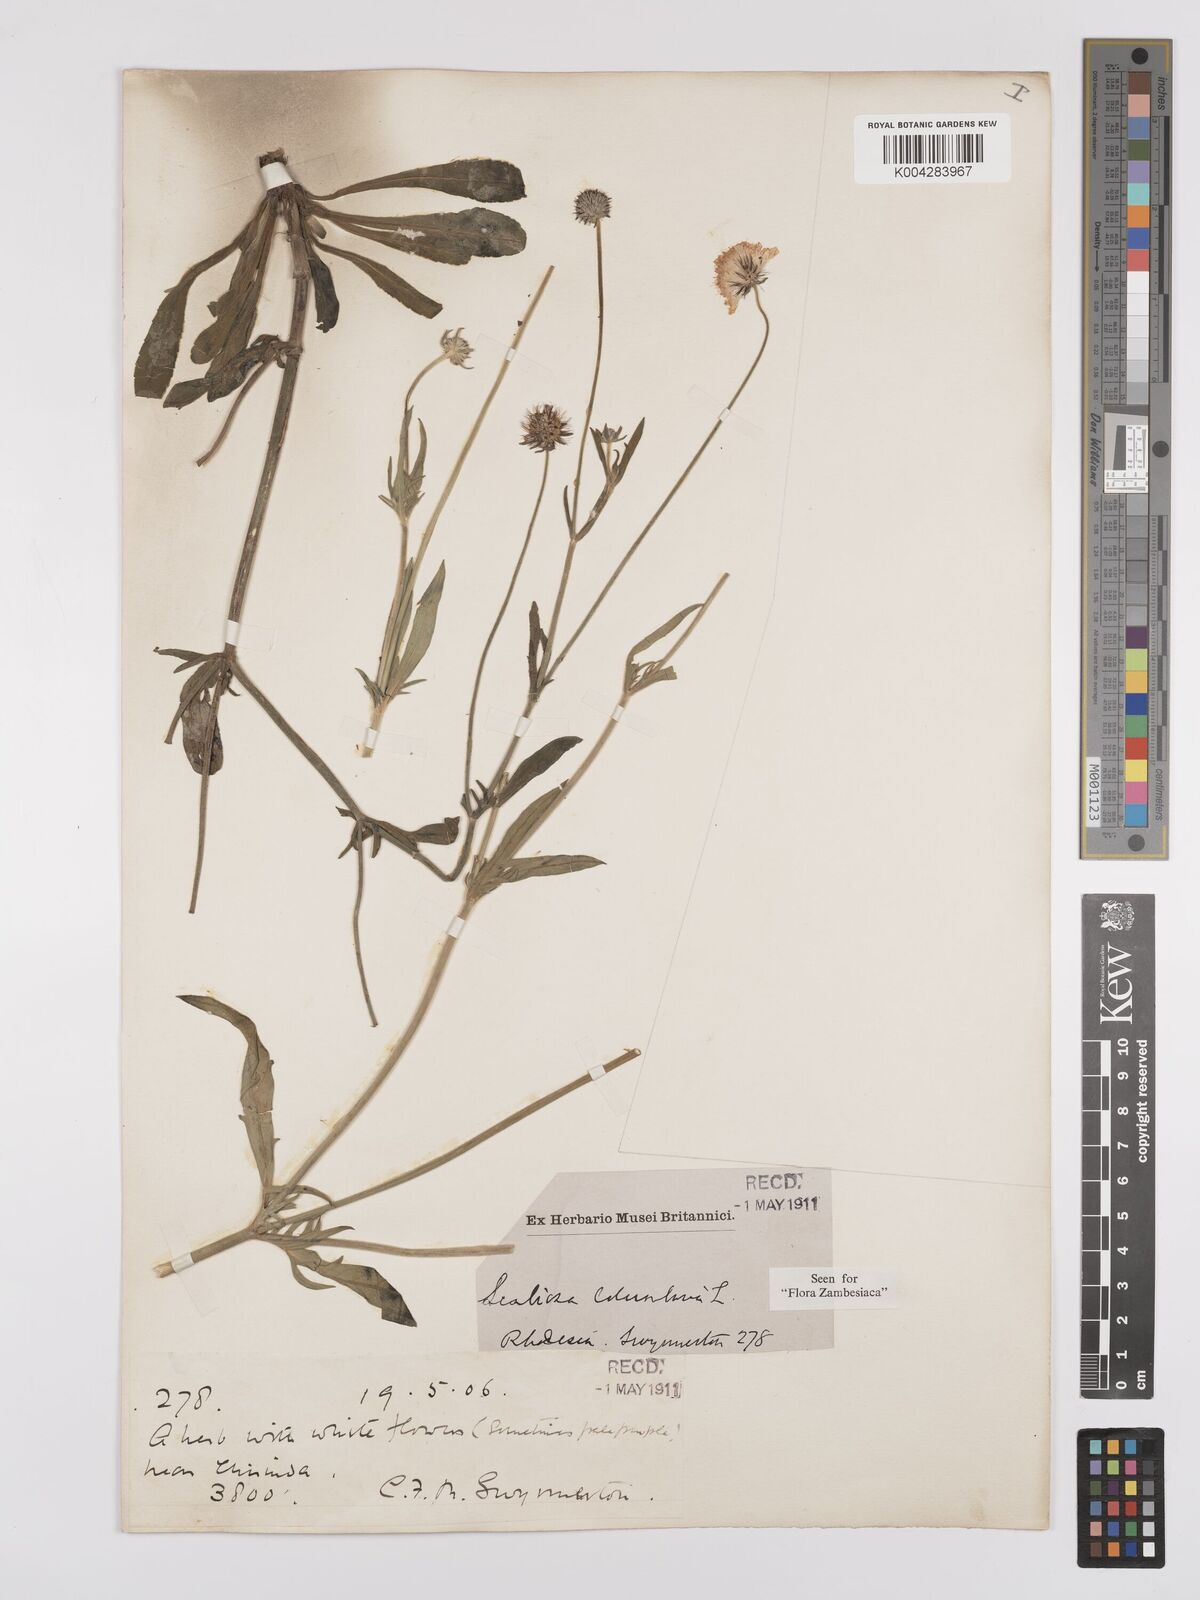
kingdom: Plantae
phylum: Tracheophyta
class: Magnoliopsida
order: Dipsacales
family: Caprifoliaceae
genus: Scabiosa
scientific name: Scabiosa columbaria
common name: Small scabious
